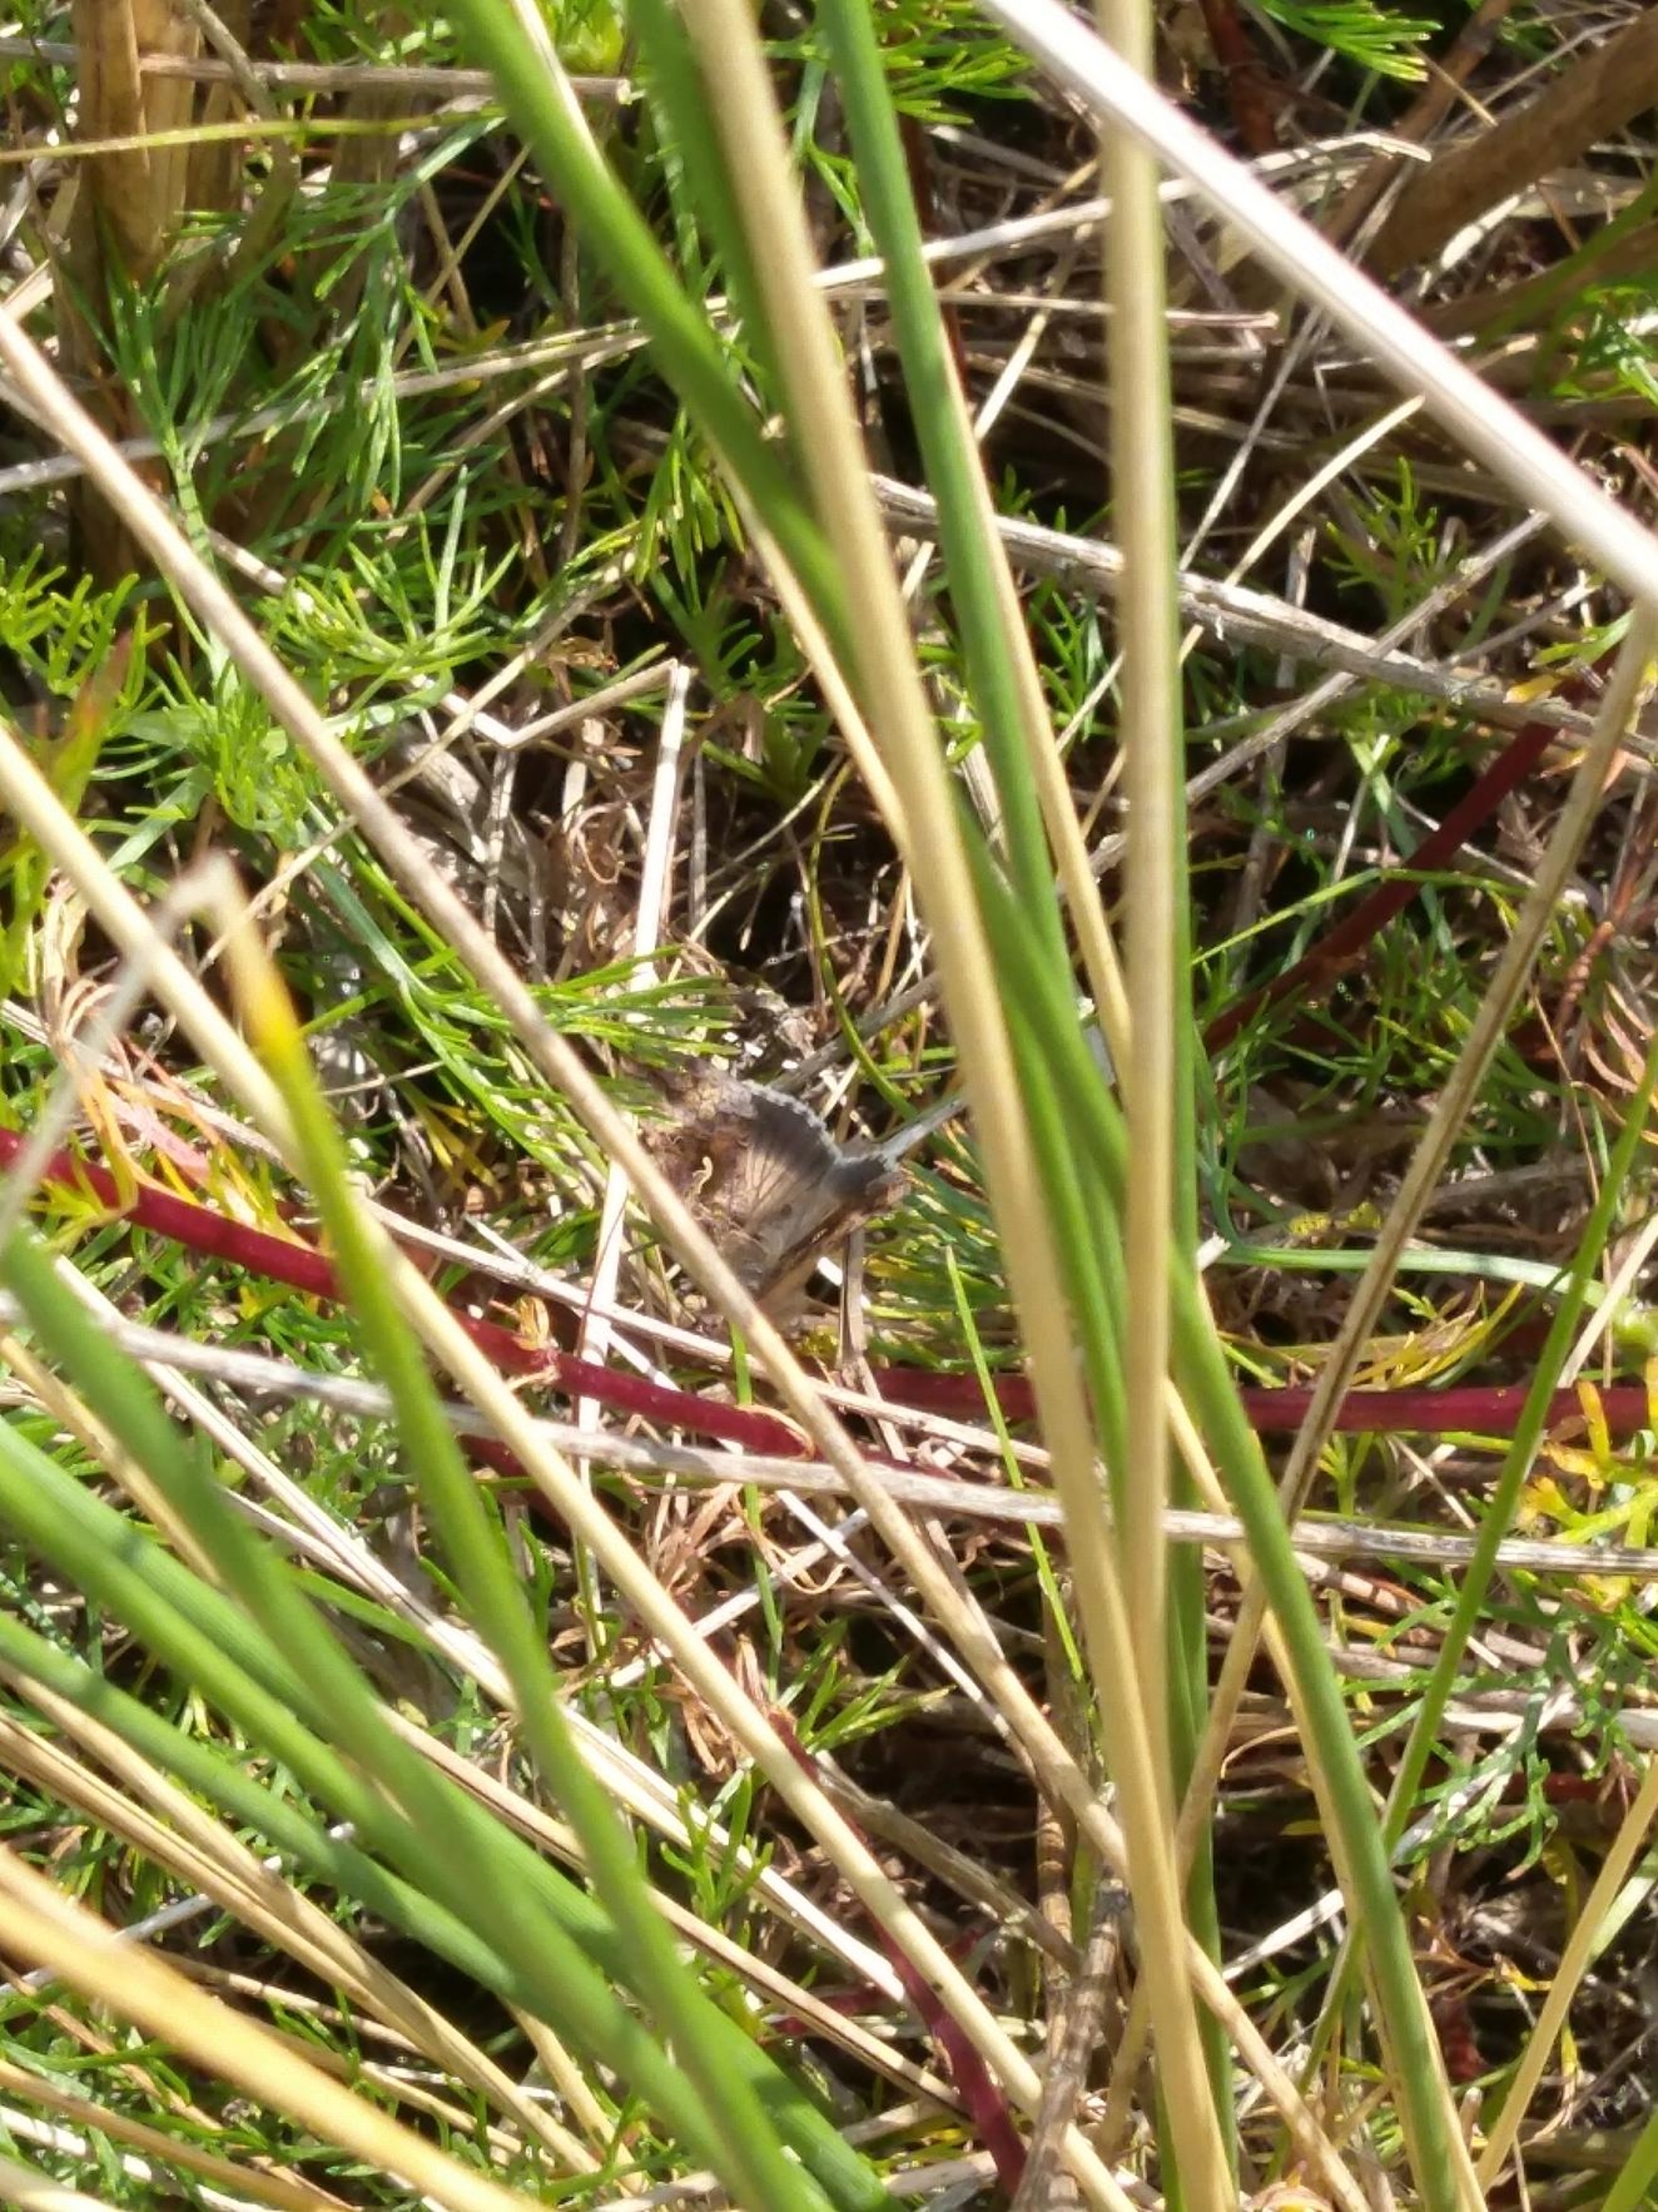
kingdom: Animalia
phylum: Arthropoda
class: Insecta
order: Lepidoptera
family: Noctuidae
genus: Autographa
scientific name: Autographa gamma
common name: Gammaugle
